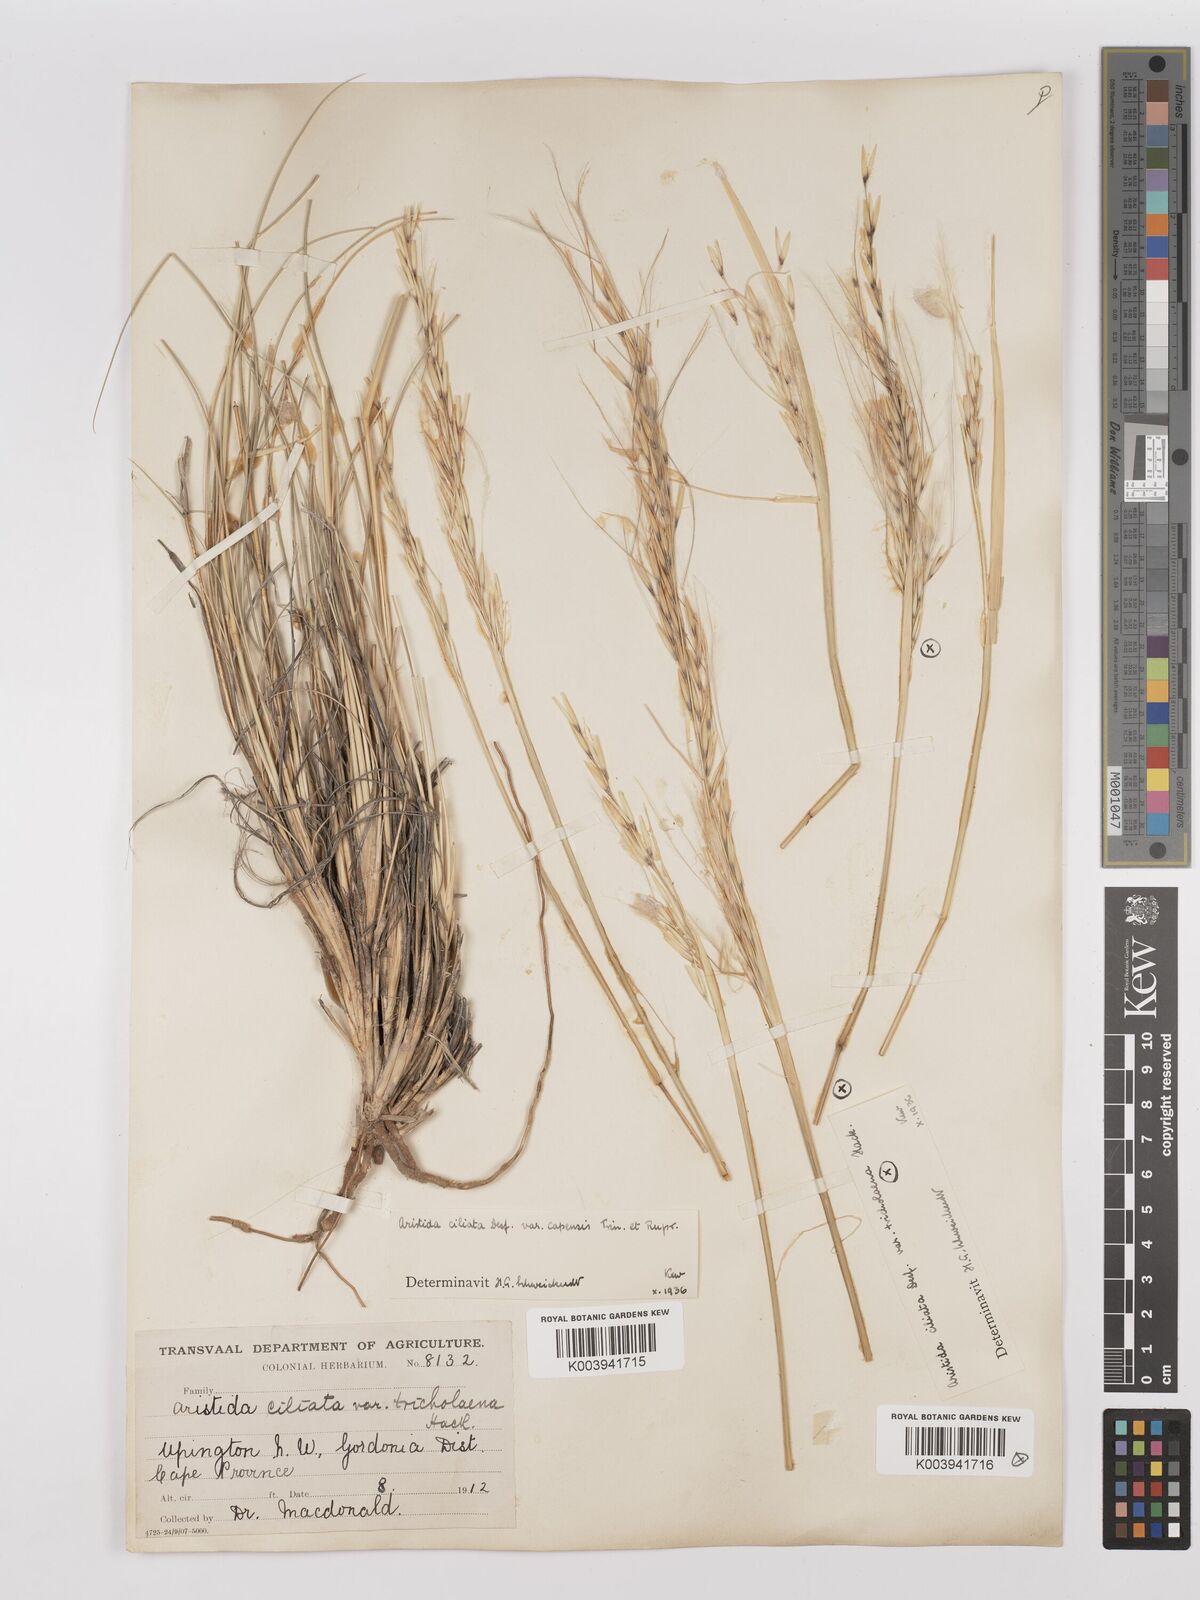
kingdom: Plantae
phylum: Tracheophyta
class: Liliopsida
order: Poales
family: Poaceae
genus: Stipagrostis
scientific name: Stipagrostis ciliata
